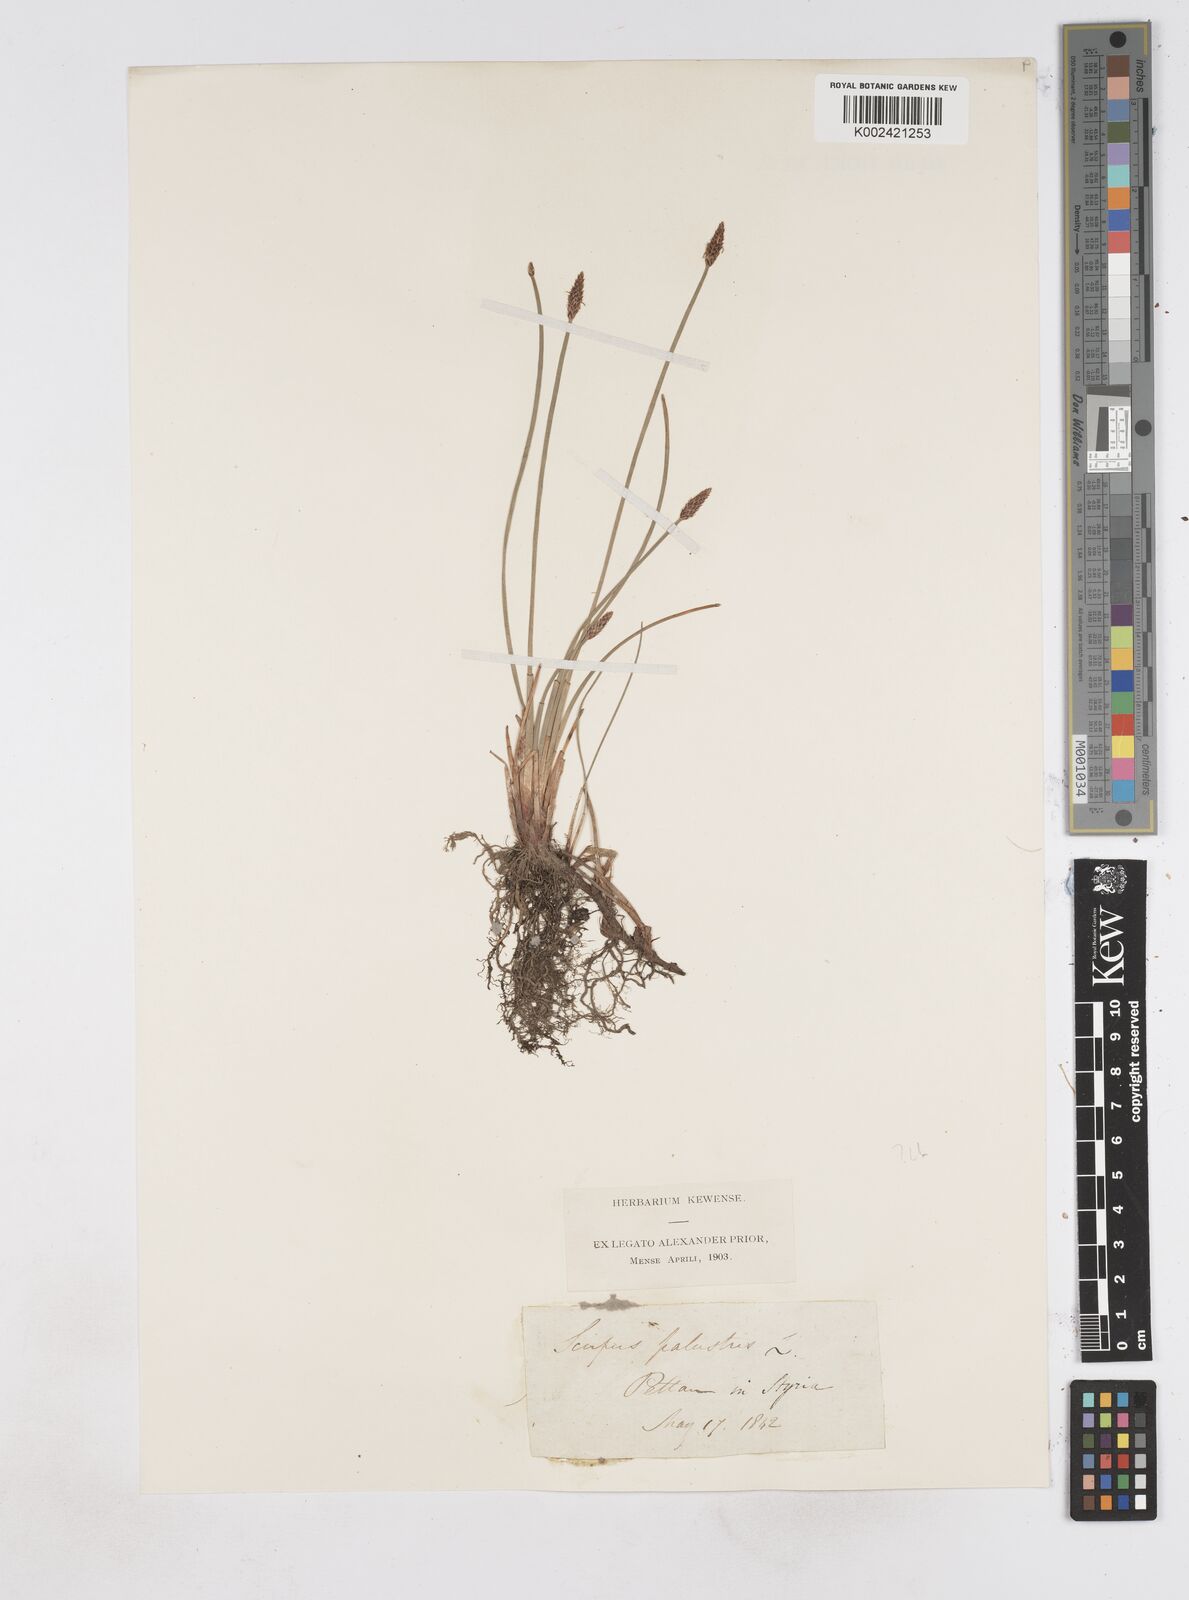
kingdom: Plantae
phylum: Tracheophyta
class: Liliopsida
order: Poales
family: Cyperaceae
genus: Eleocharis
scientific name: Eleocharis palustris
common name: Common spike-rush
